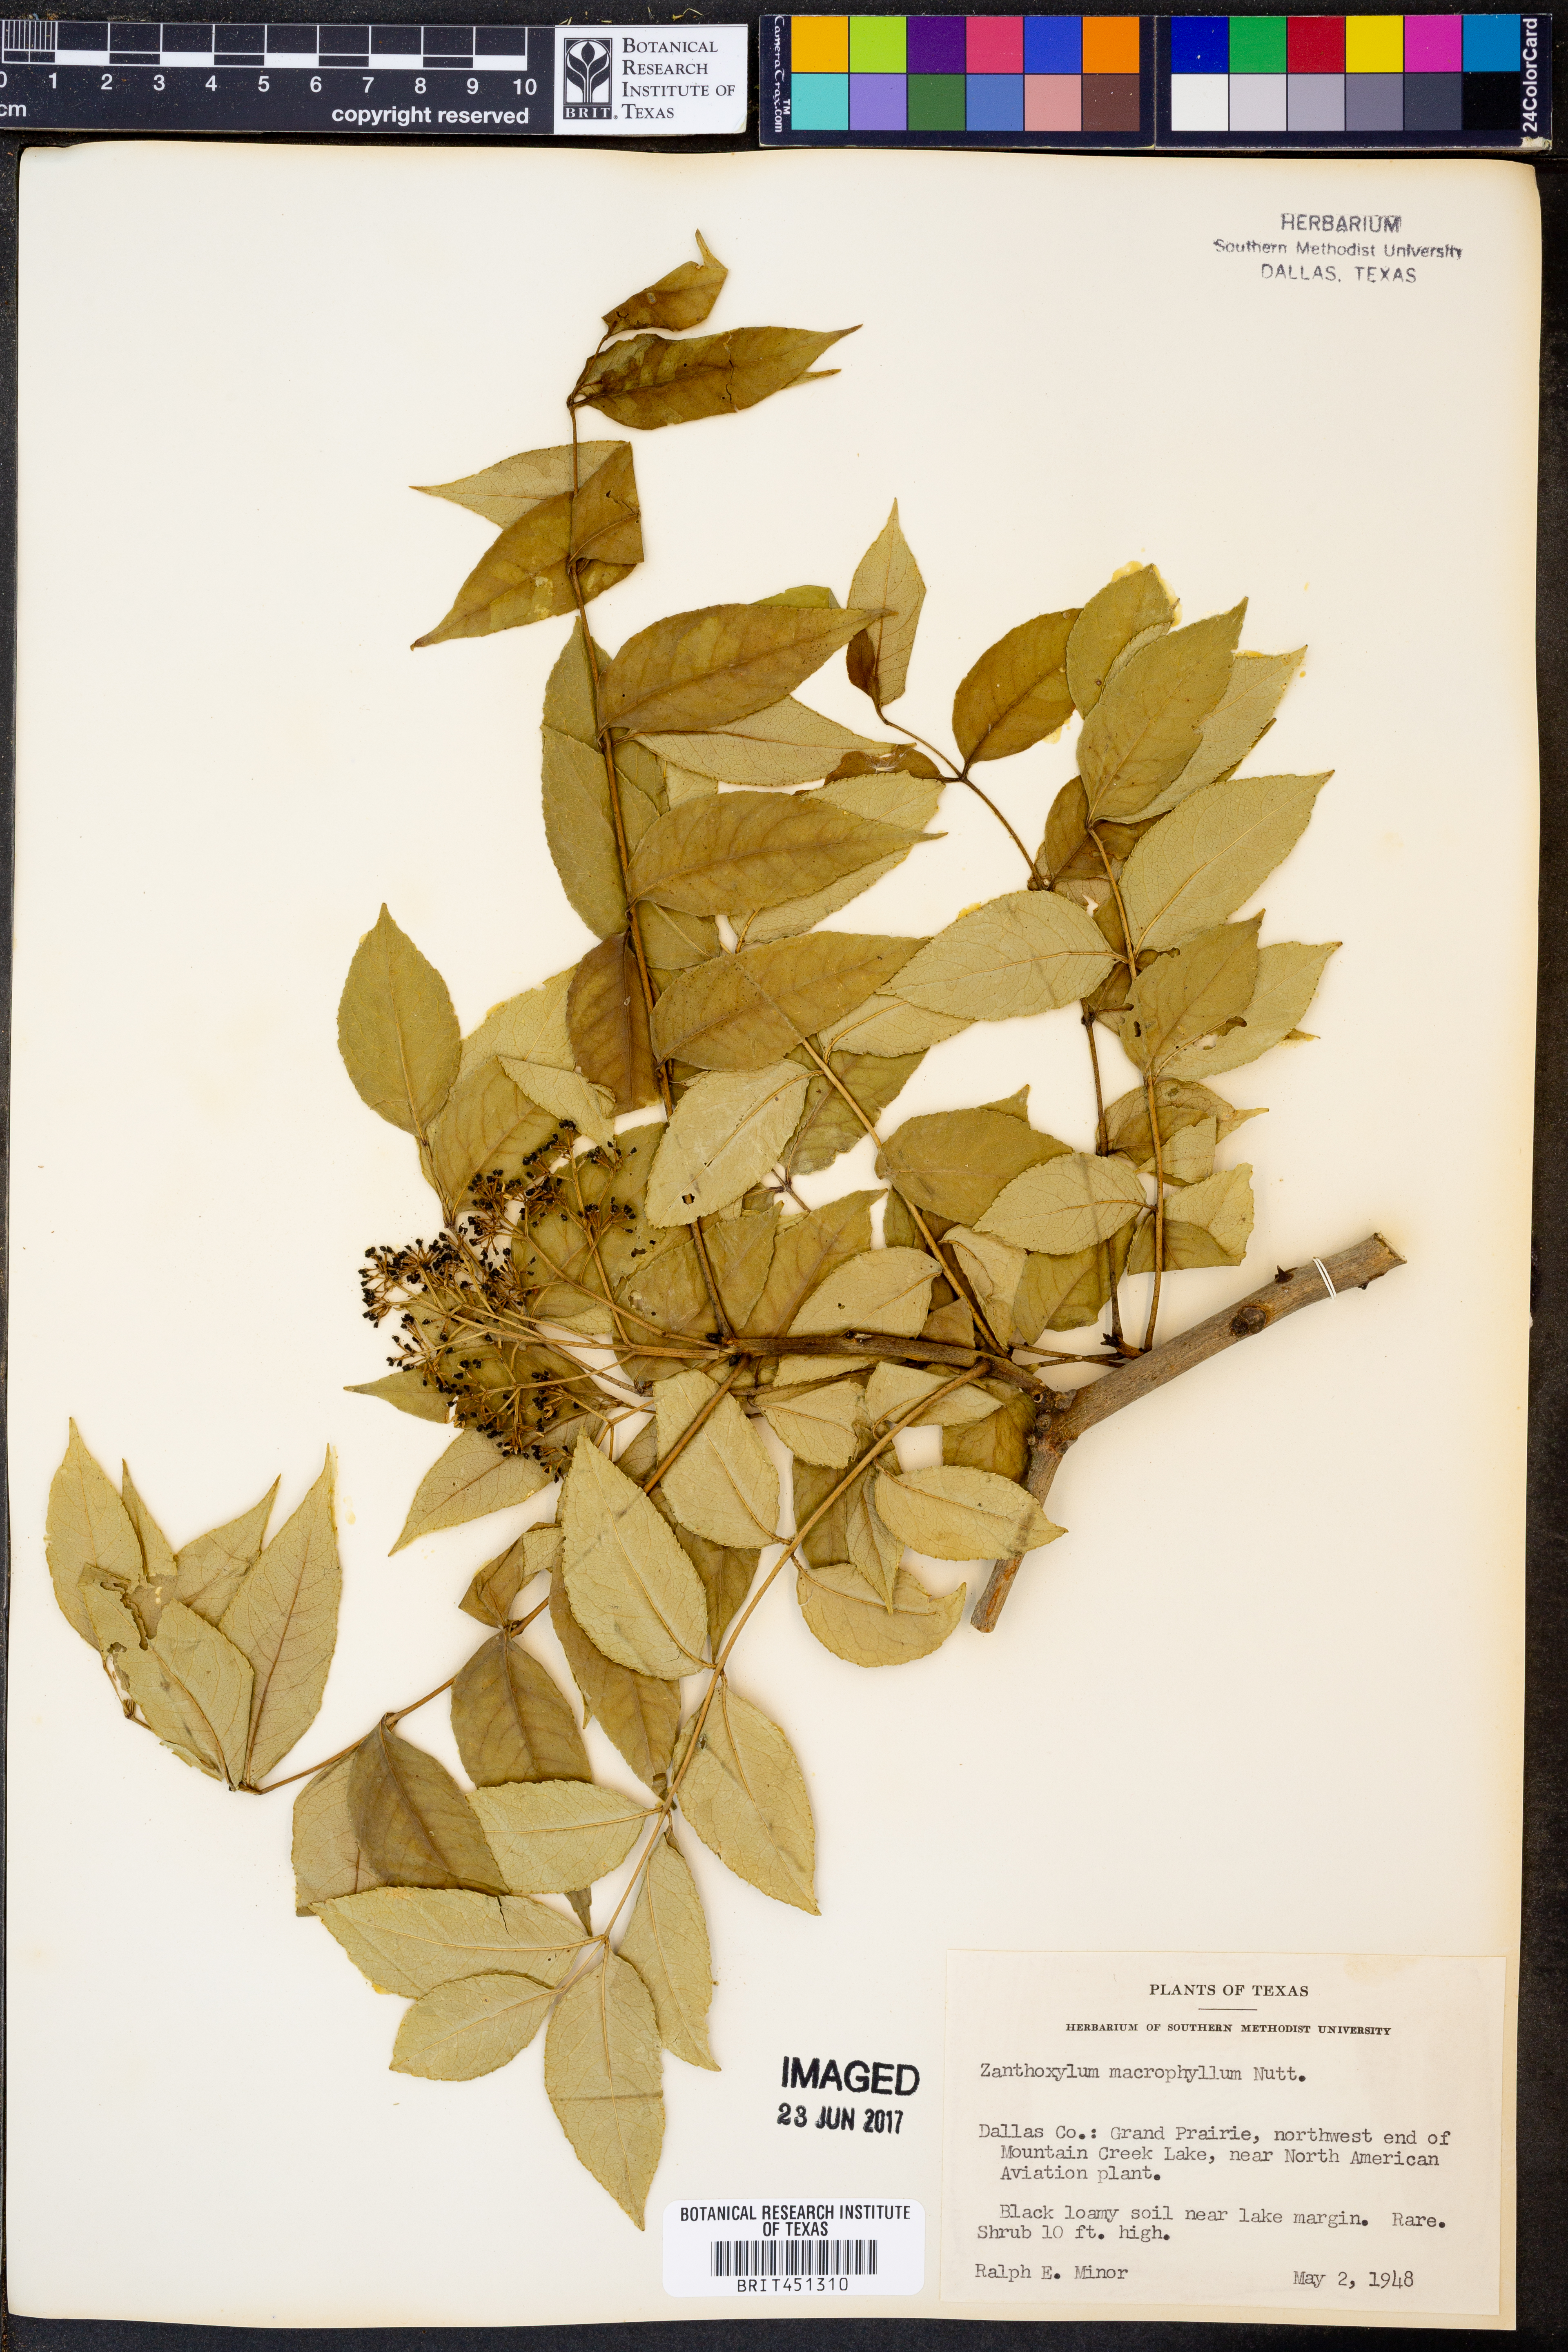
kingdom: Plantae
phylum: Tracheophyta
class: Magnoliopsida
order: Sapindales
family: Rutaceae
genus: Zanthoxylum
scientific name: Zanthoxylum gilletii
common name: African satinwood
